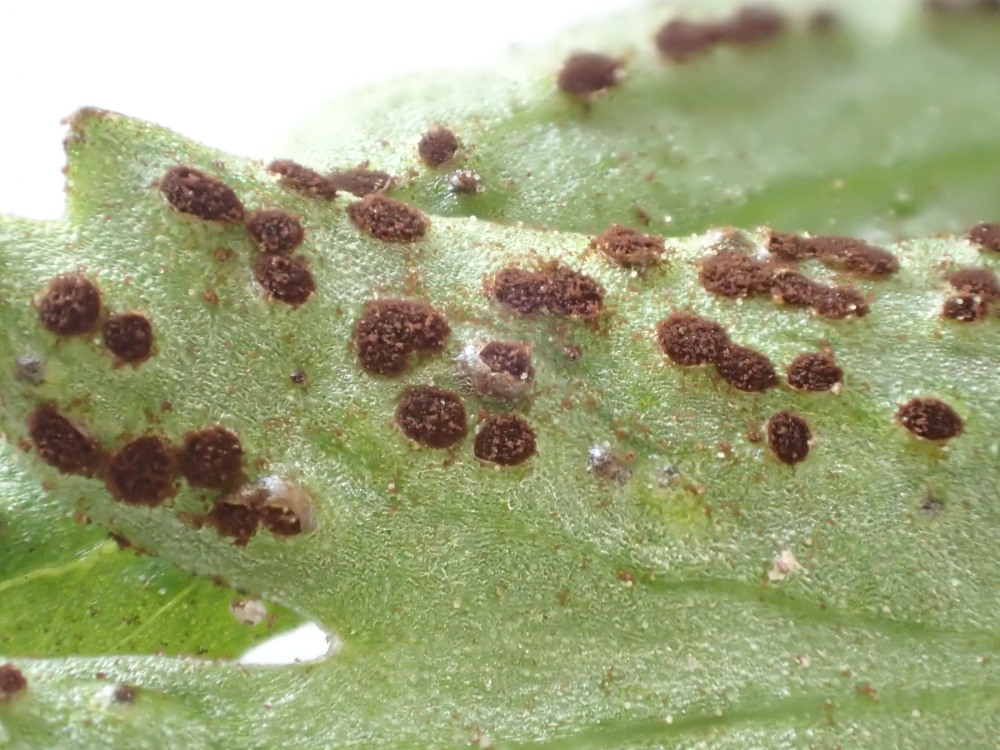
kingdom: Fungi
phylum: Basidiomycota
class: Pucciniomycetes
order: Pucciniales
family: Tranzscheliaceae
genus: Tranzschelia
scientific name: Tranzschelia anemones
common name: anemone-knæksporerust
